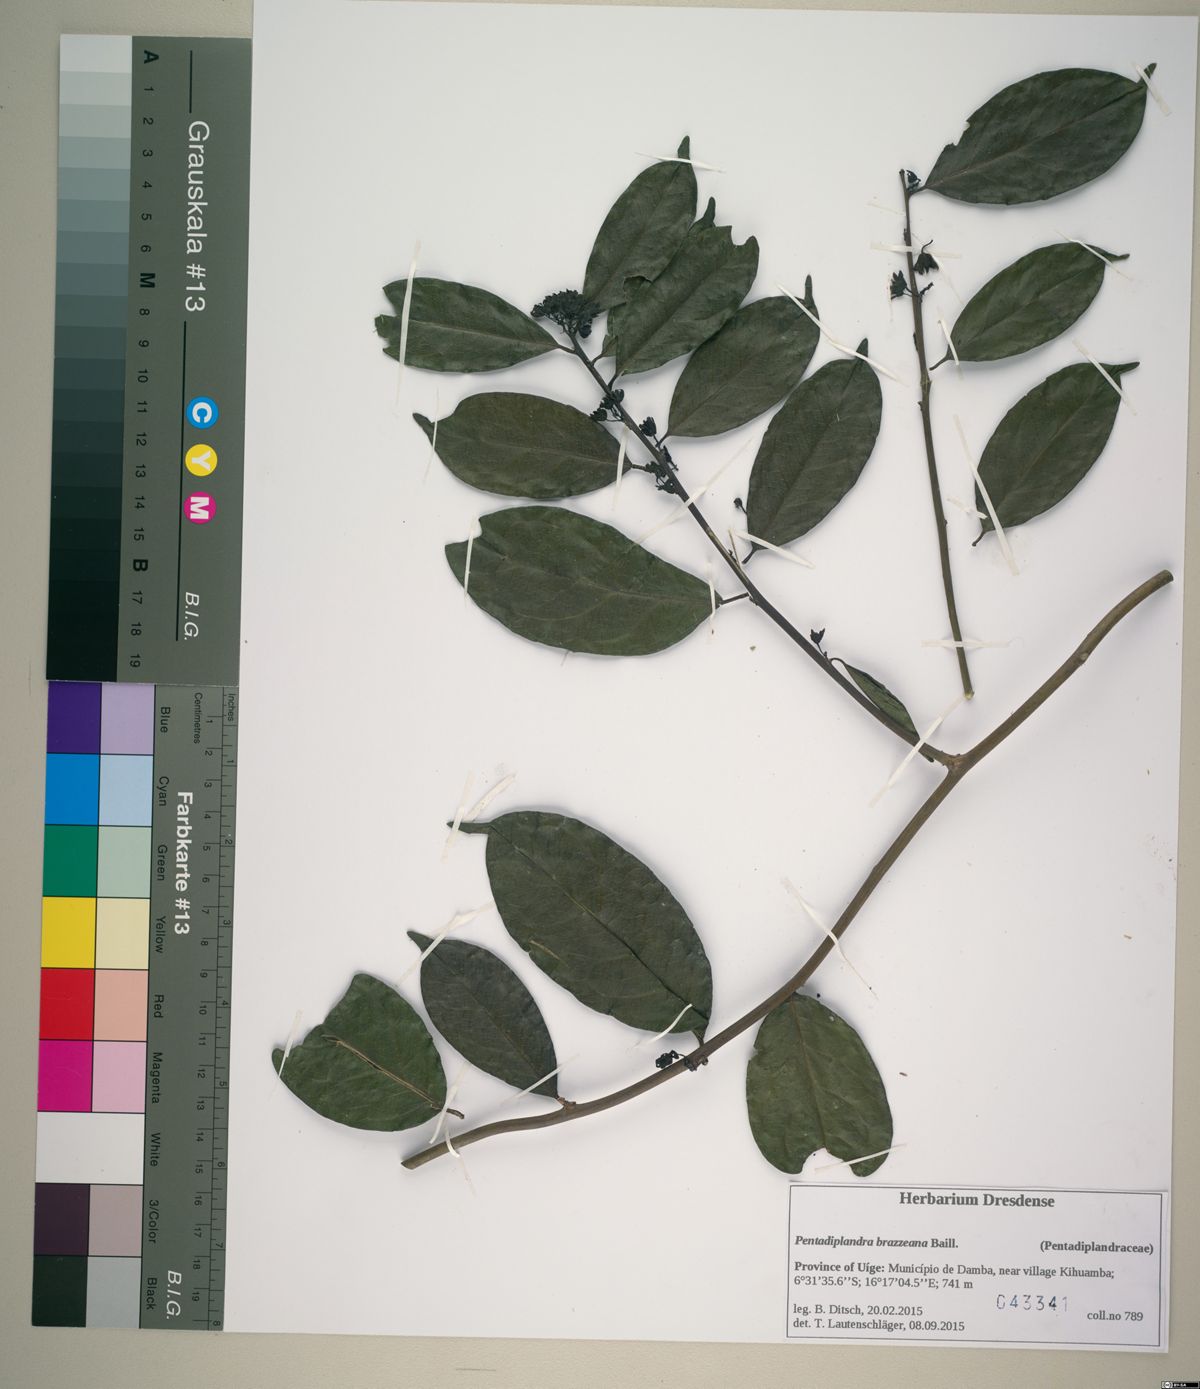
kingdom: Plantae
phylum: Tracheophyta
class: Magnoliopsida
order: Brassicales
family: Pentadiplandraceae
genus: Pentadiplandra
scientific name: Pentadiplandra brazzeana
